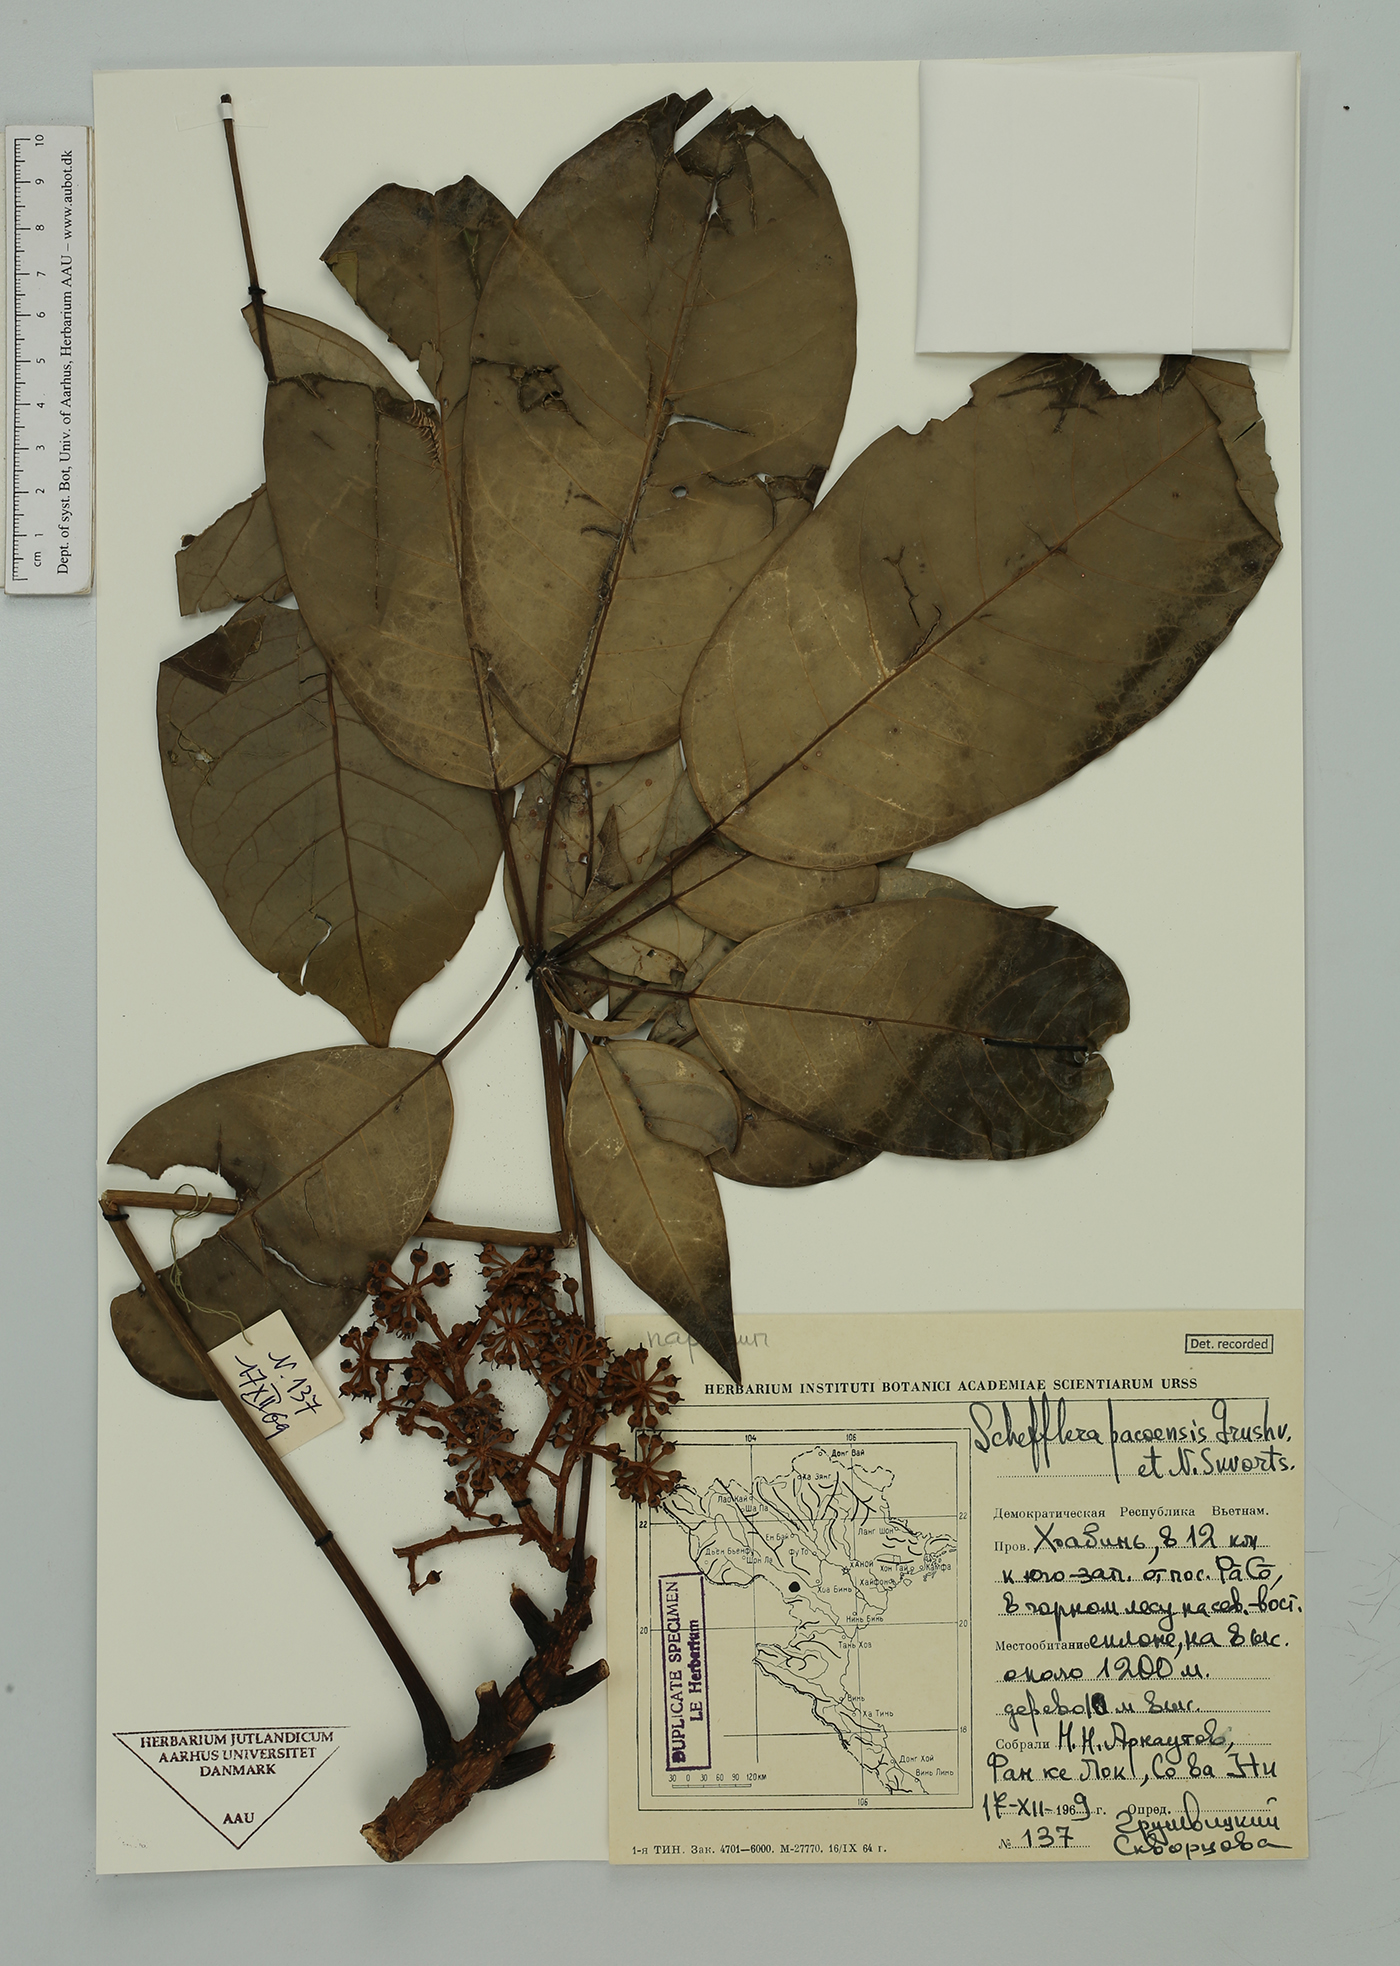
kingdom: Plantae
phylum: Tracheophyta
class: Magnoliopsida
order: Apiales
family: Araliaceae
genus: Heptapleurum
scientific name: Heptapleurum pacoense
